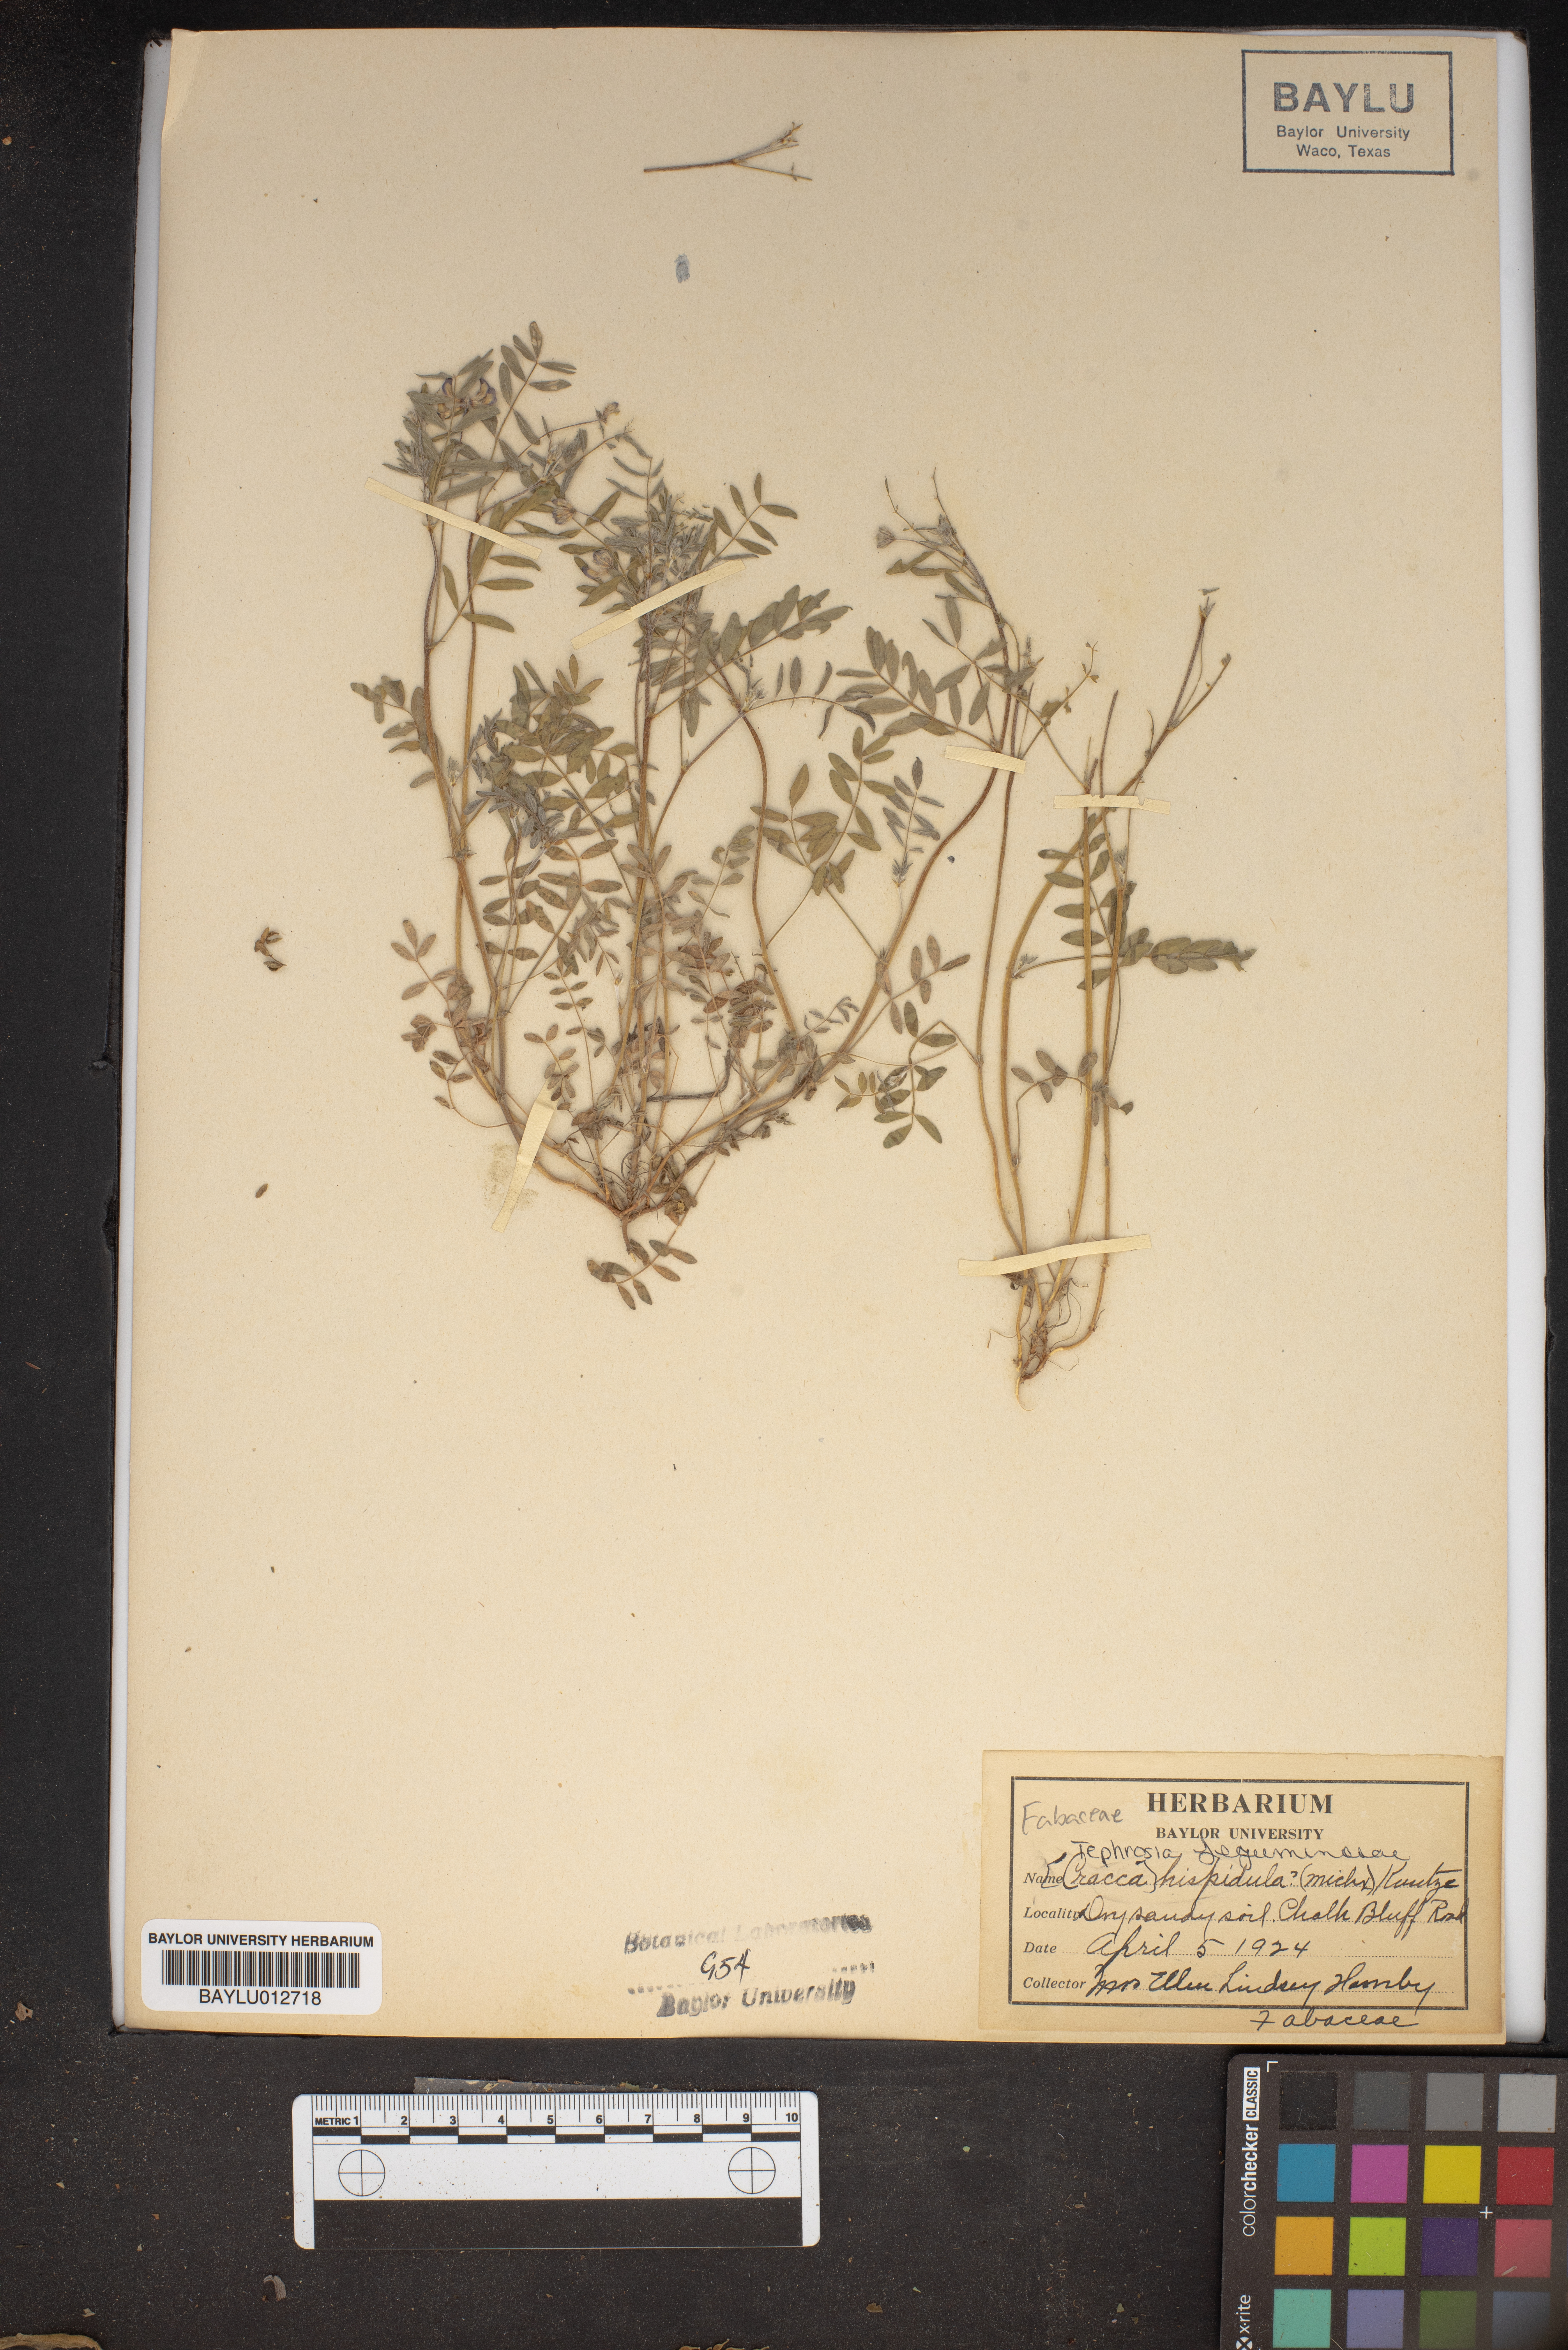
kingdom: Plantae
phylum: Tracheophyta
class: Magnoliopsida
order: Fabales
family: Fabaceae
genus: Tephrosia
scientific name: Tephrosia hispidula
